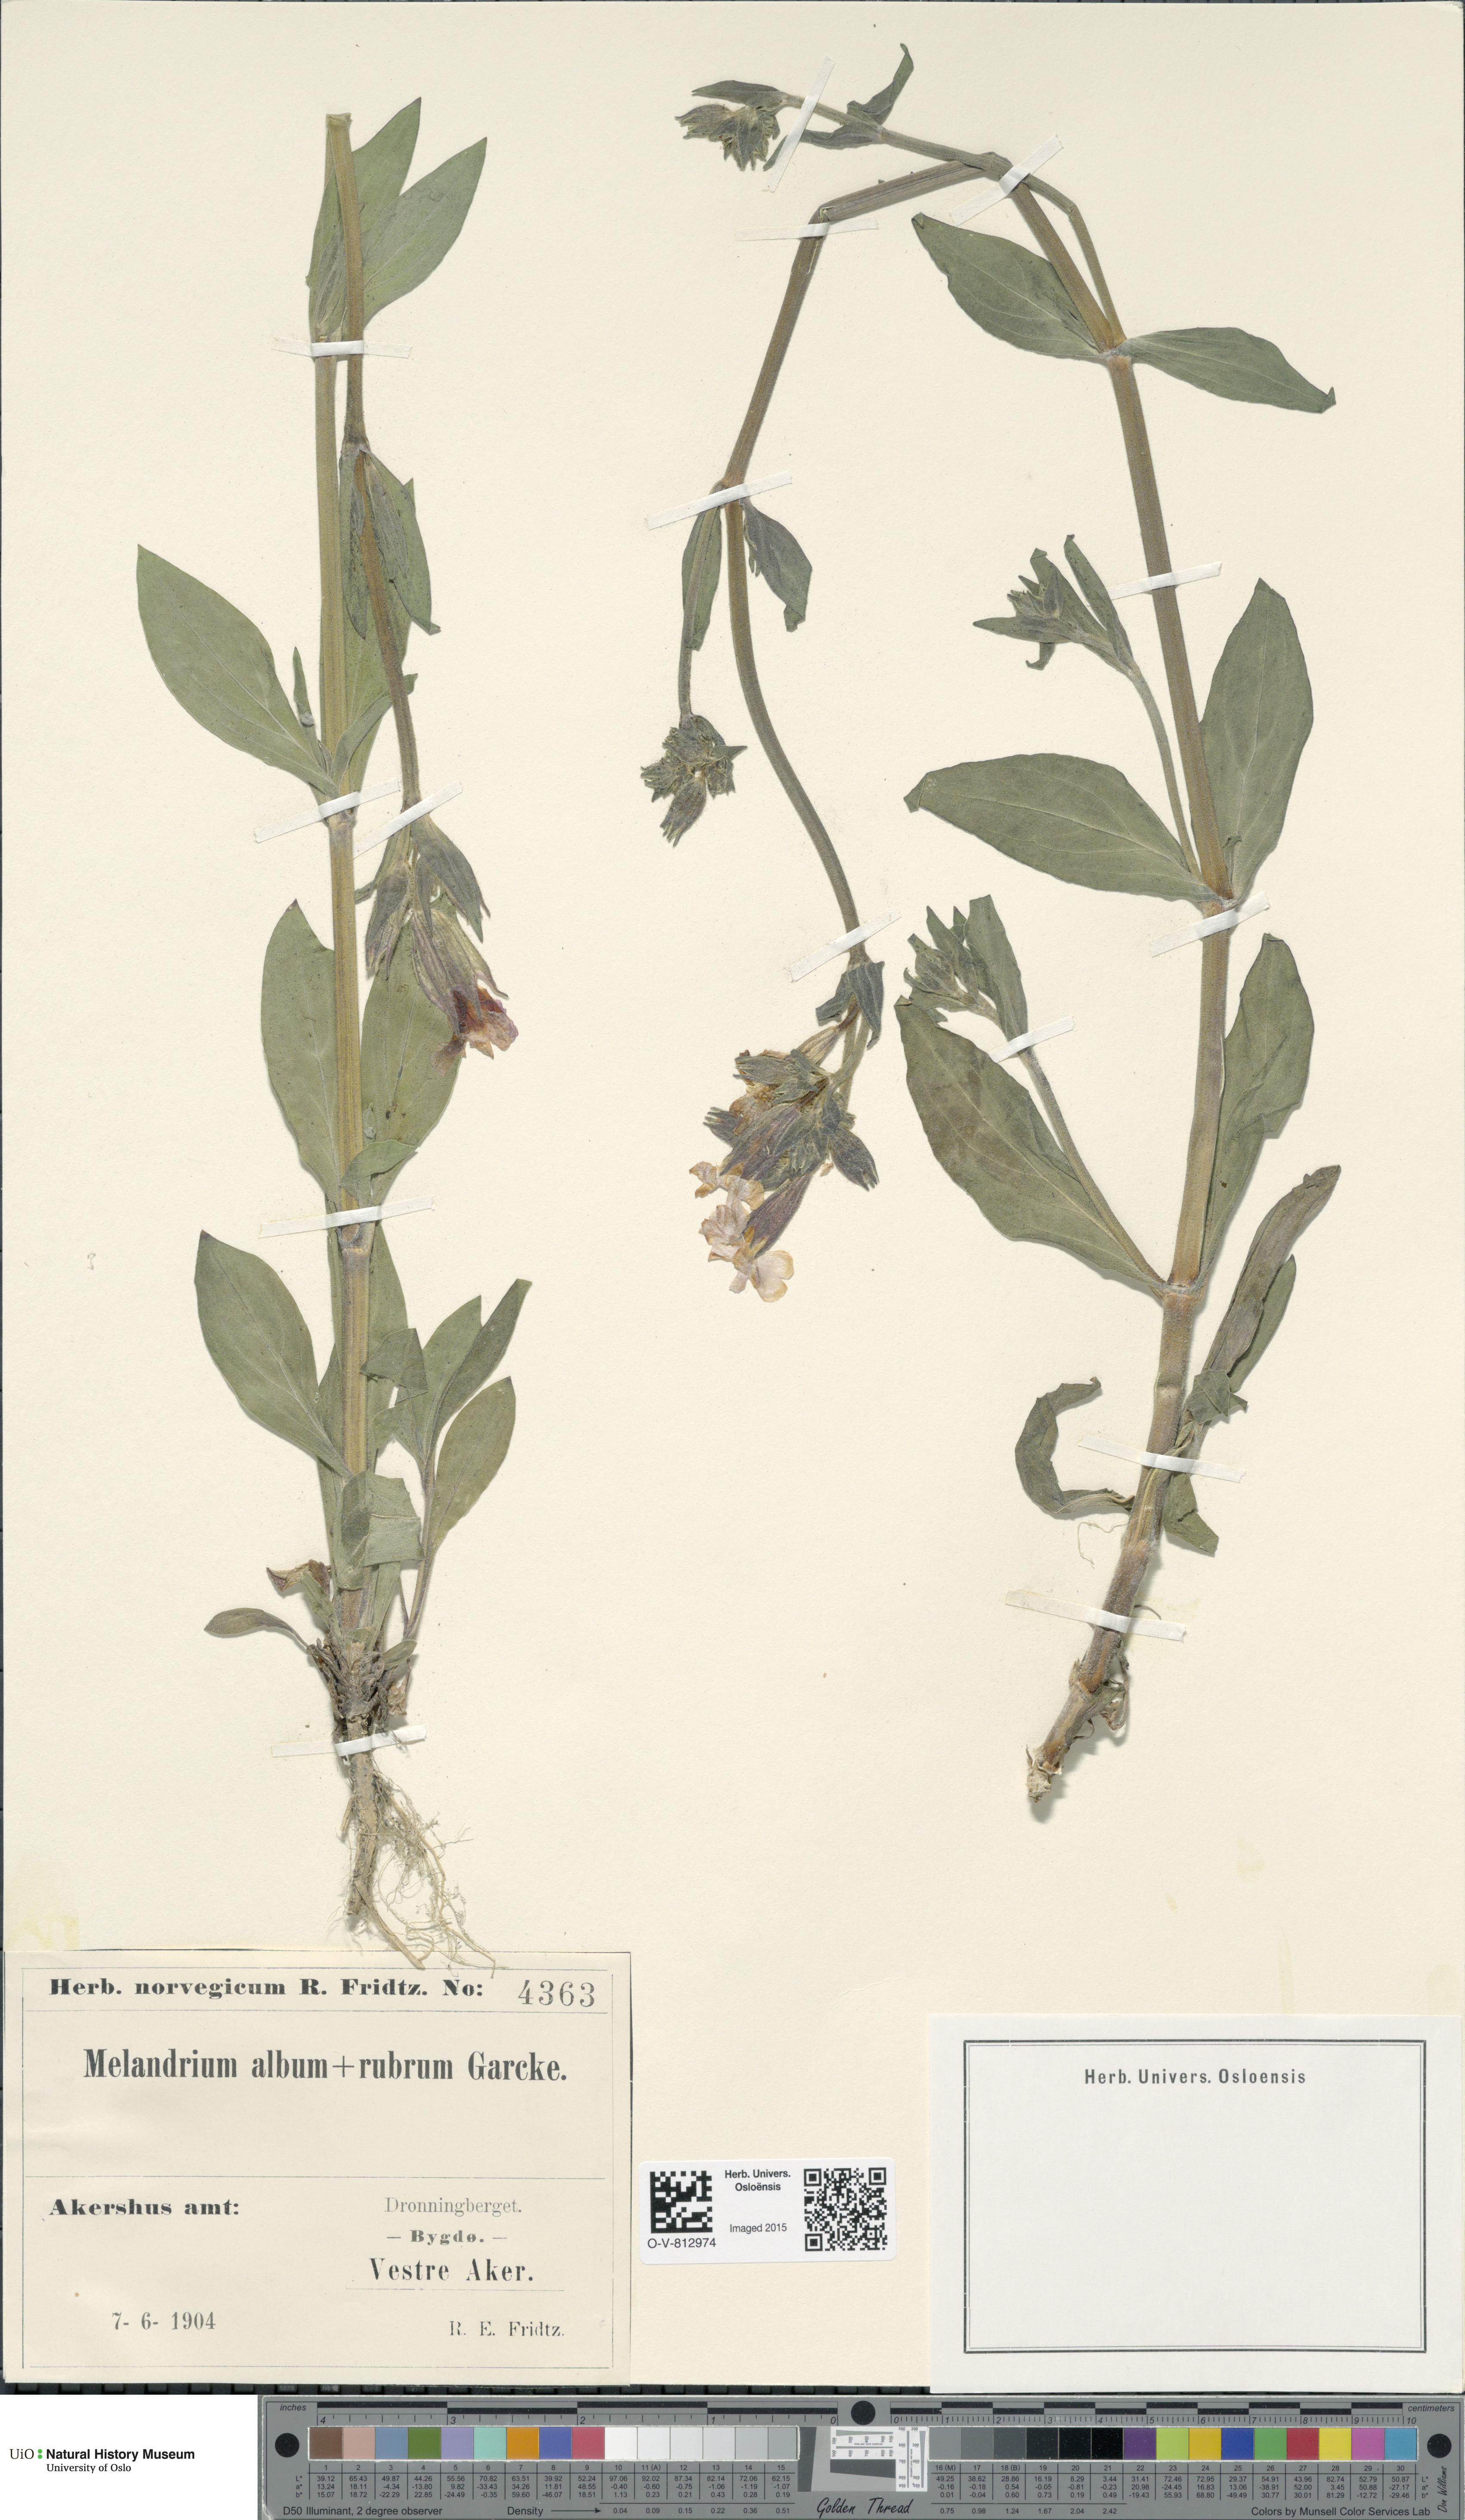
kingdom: Plantae
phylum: Tracheophyta
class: Magnoliopsida
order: Caryophyllales
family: Caryophyllaceae
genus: Silene
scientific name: Silene
